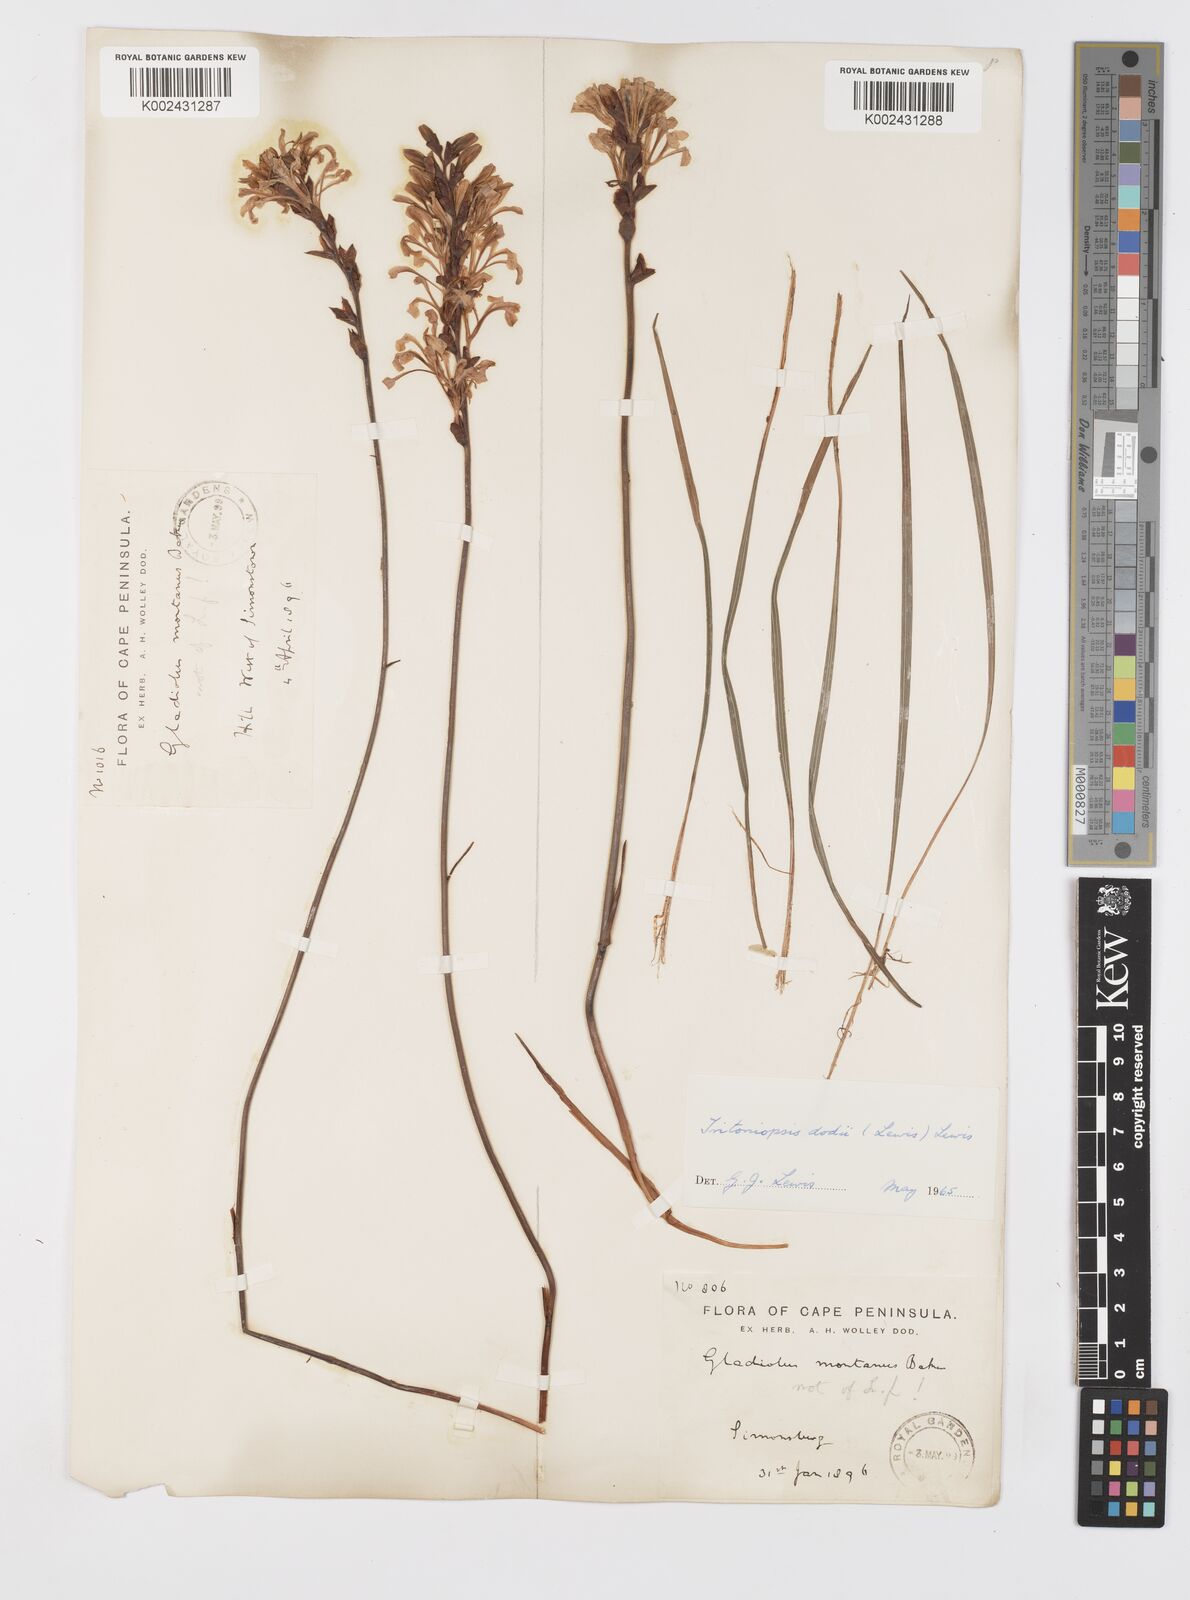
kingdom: Plantae
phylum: Tracheophyta
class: Liliopsida
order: Asparagales
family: Iridaceae
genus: Tritoniopsis
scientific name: Tritoniopsis dodii
